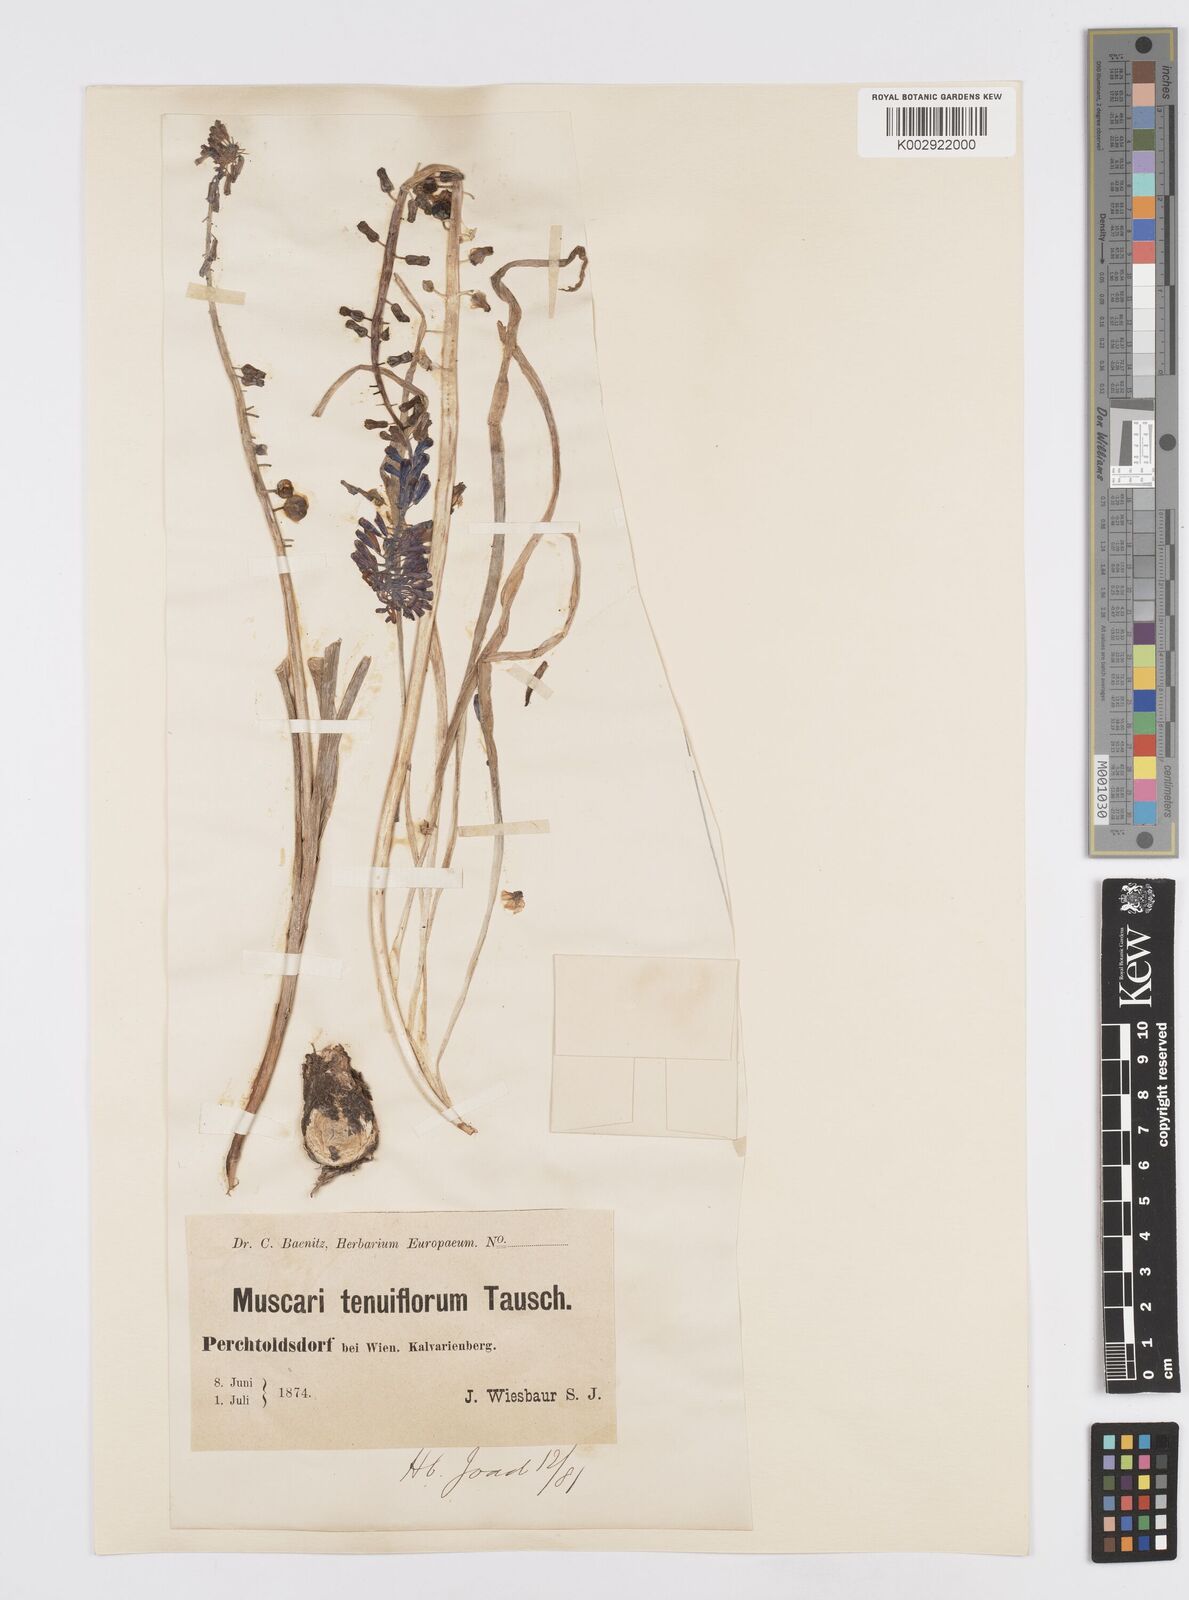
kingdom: Plantae
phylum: Tracheophyta
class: Liliopsida
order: Asparagales
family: Asparagaceae
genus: Muscari
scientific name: Muscari tenuiflorum
